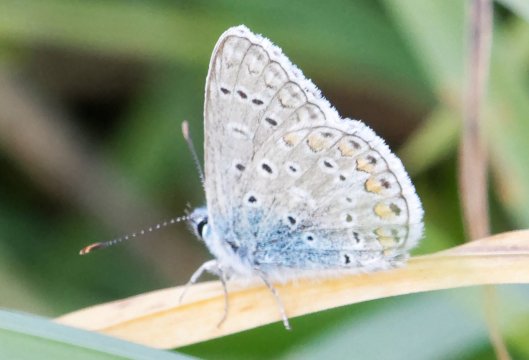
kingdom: Animalia
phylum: Arthropoda
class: Insecta
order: Lepidoptera
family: Lycaenidae
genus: Polyommatus
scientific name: Polyommatus icarus
